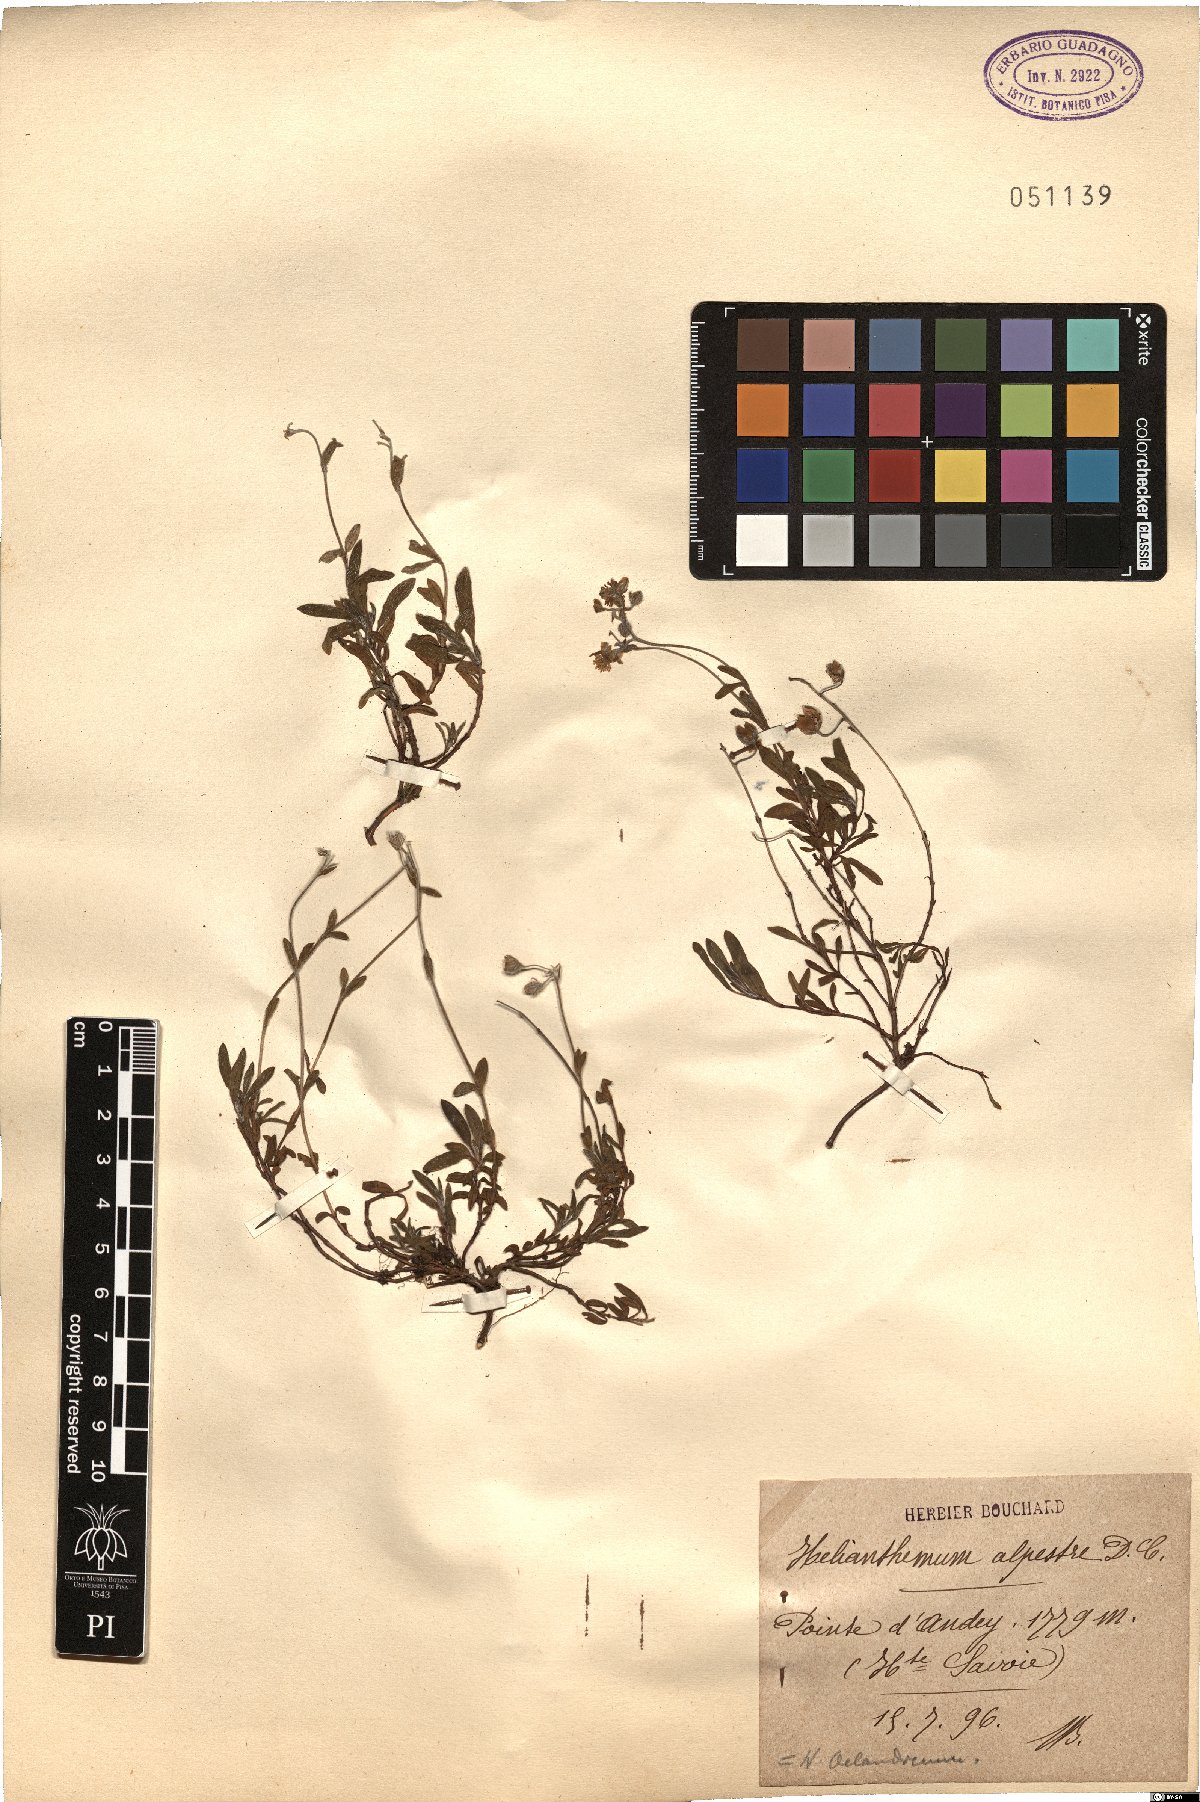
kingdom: Plantae
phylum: Tracheophyta
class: Magnoliopsida
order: Malvales
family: Cistaceae
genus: Helianthemum
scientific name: Helianthemum alpestre
